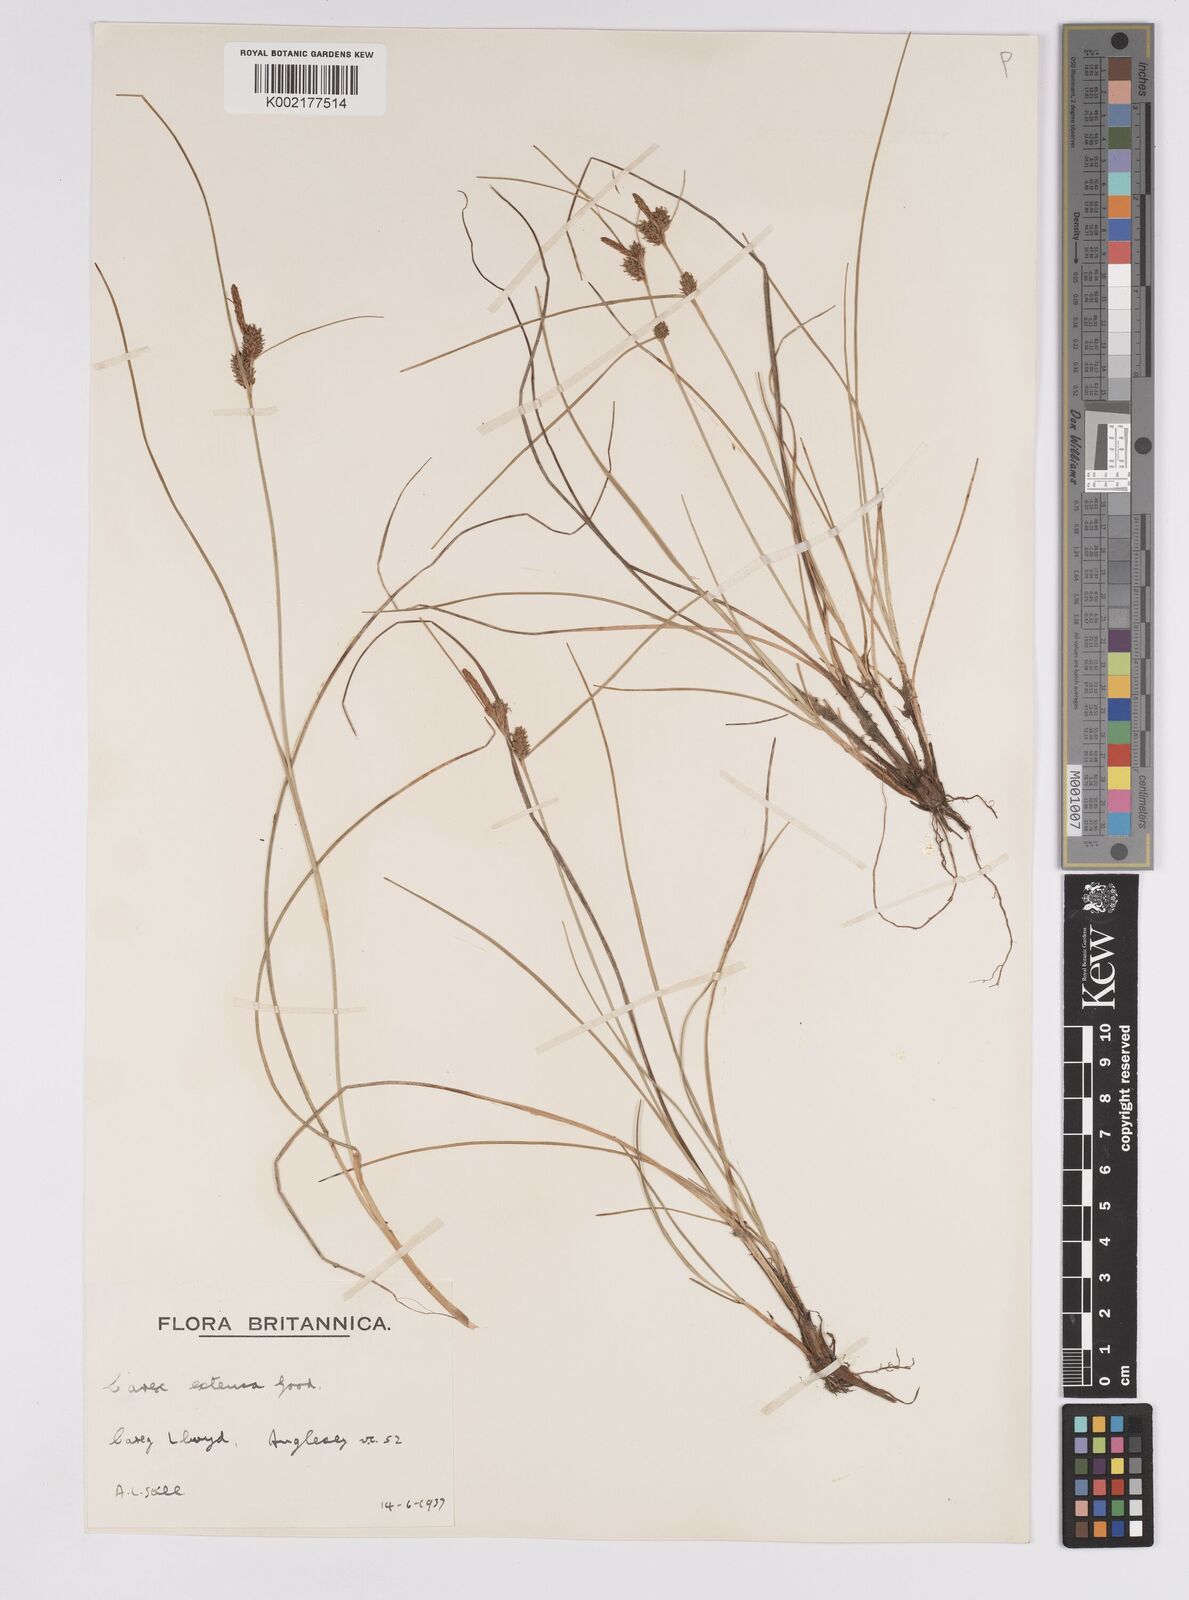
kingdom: Plantae
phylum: Tracheophyta
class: Liliopsida
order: Poales
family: Cyperaceae
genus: Carex
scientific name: Carex extensa
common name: Long-bracted sedge
